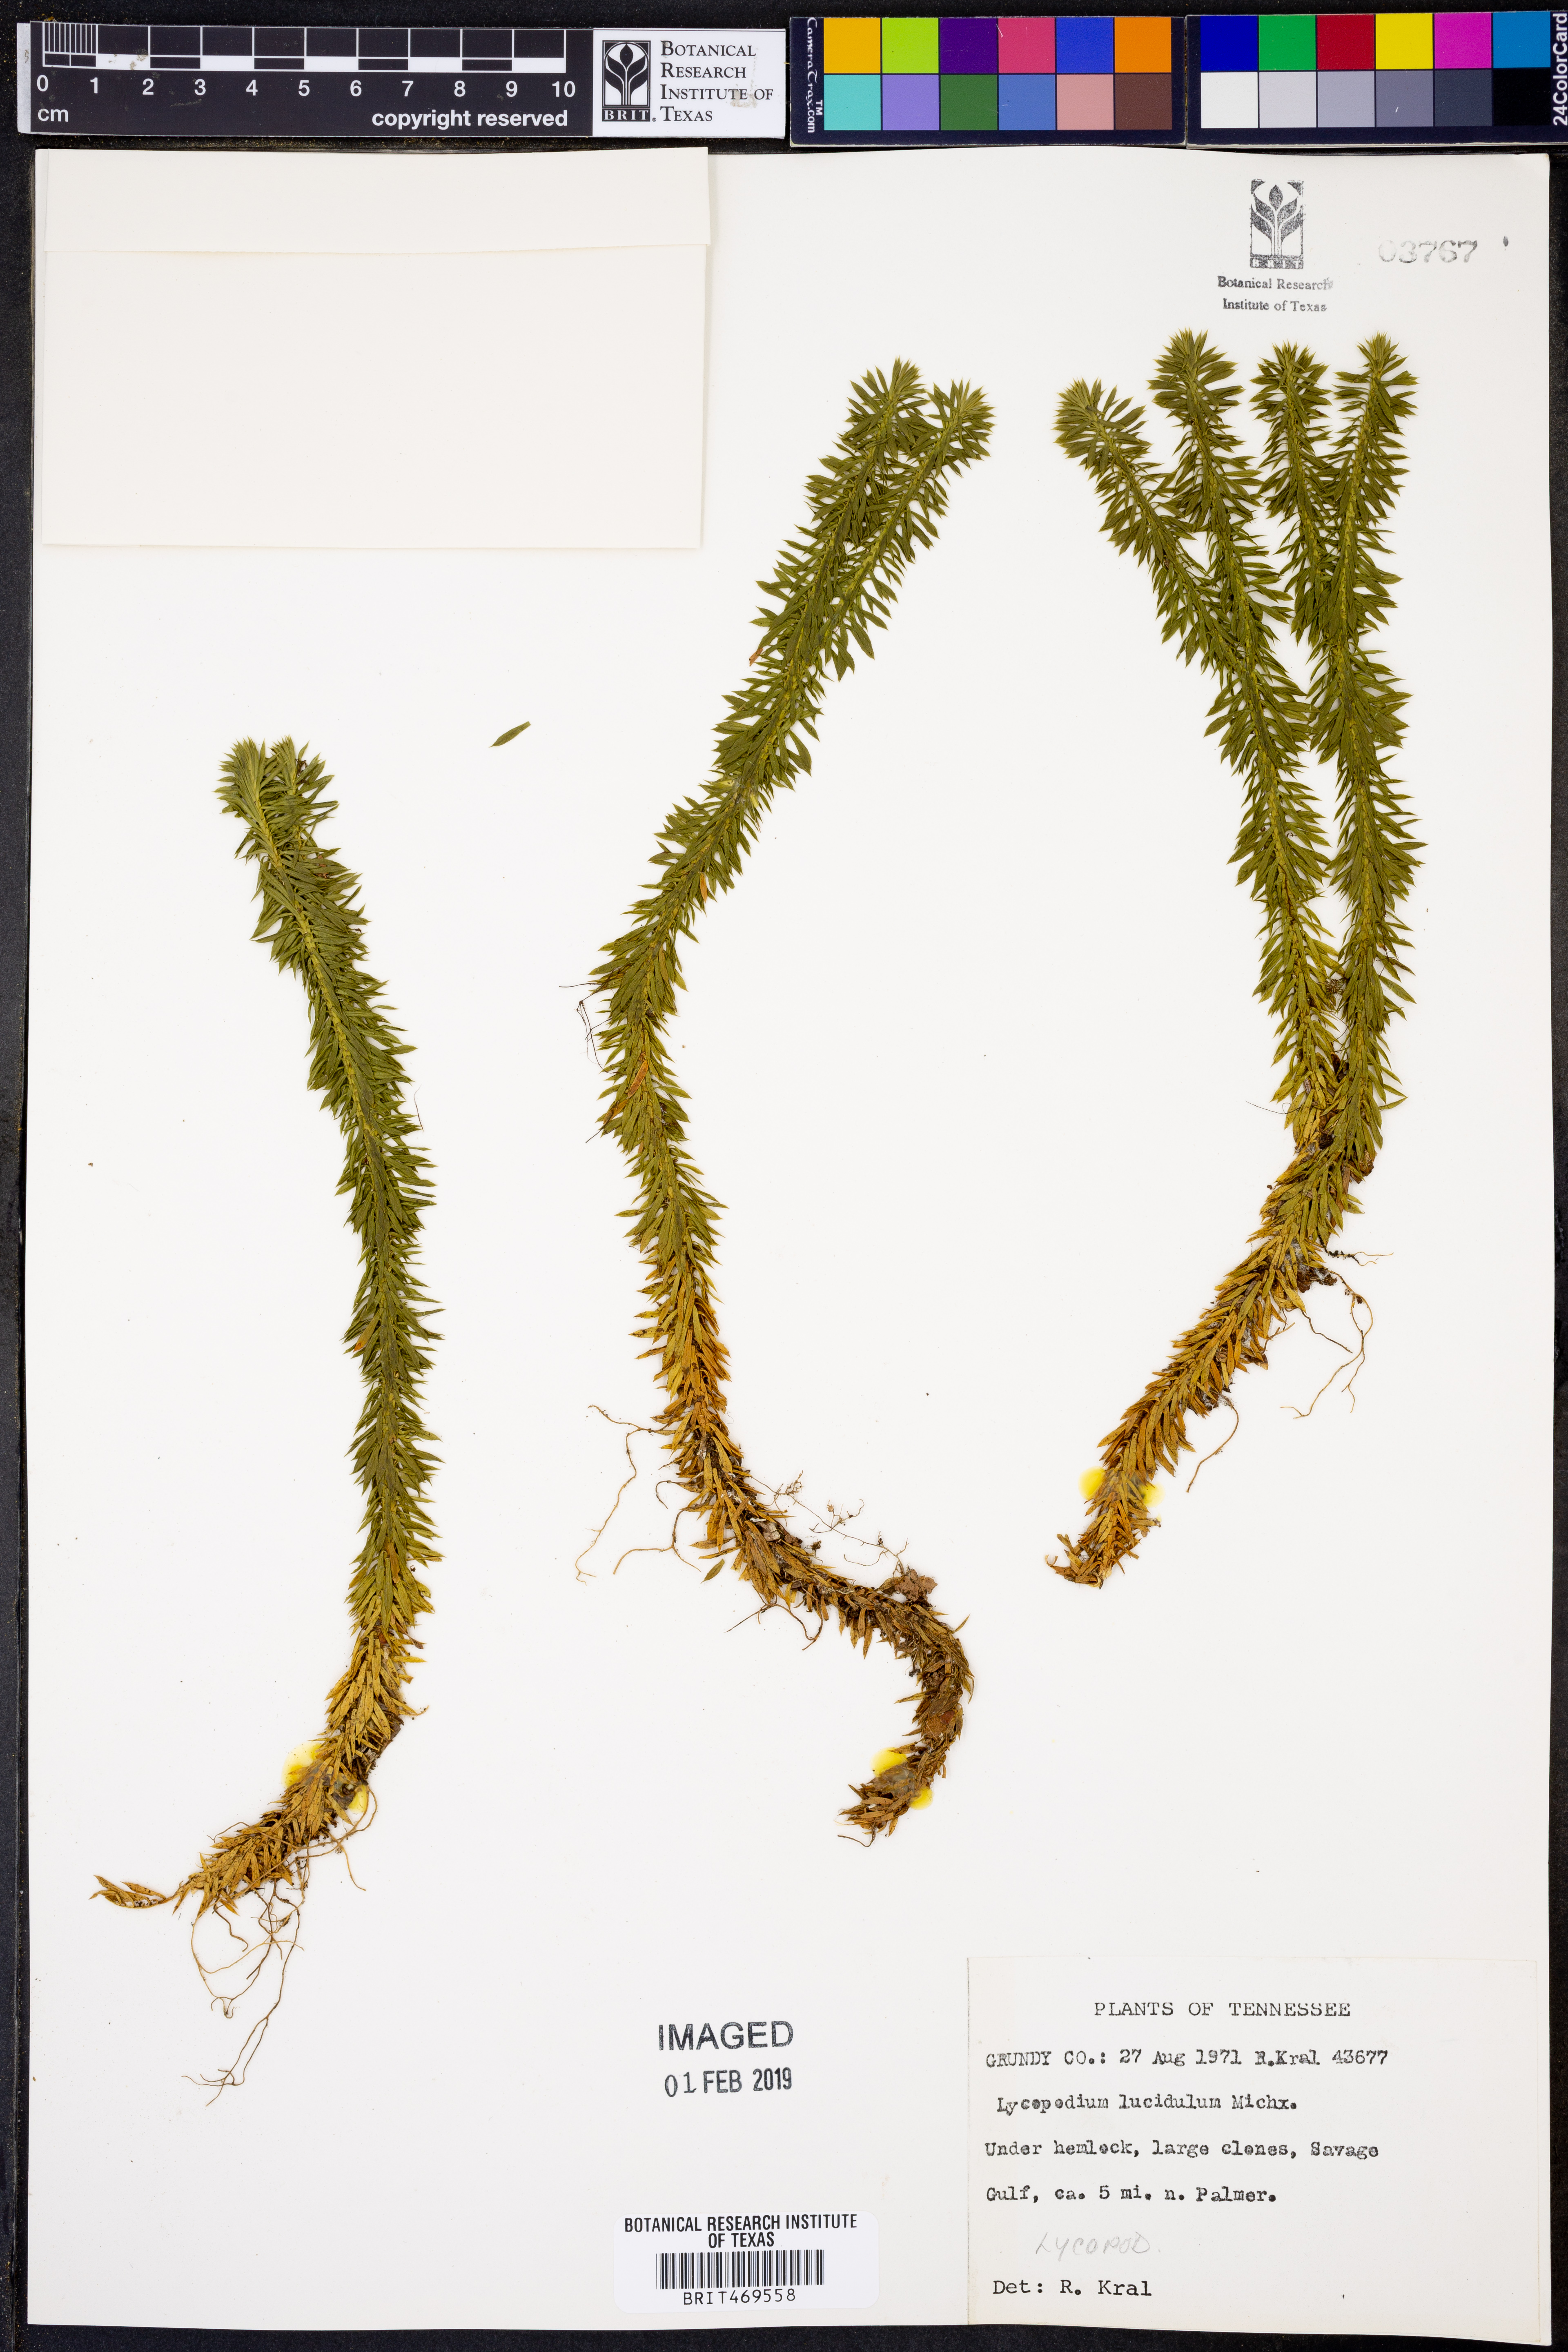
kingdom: Plantae
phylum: Tracheophyta
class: Lycopodiopsida
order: Lycopodiales
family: Lycopodiaceae
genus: Huperzia
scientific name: Huperzia lucidula
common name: Shining clubmoss
